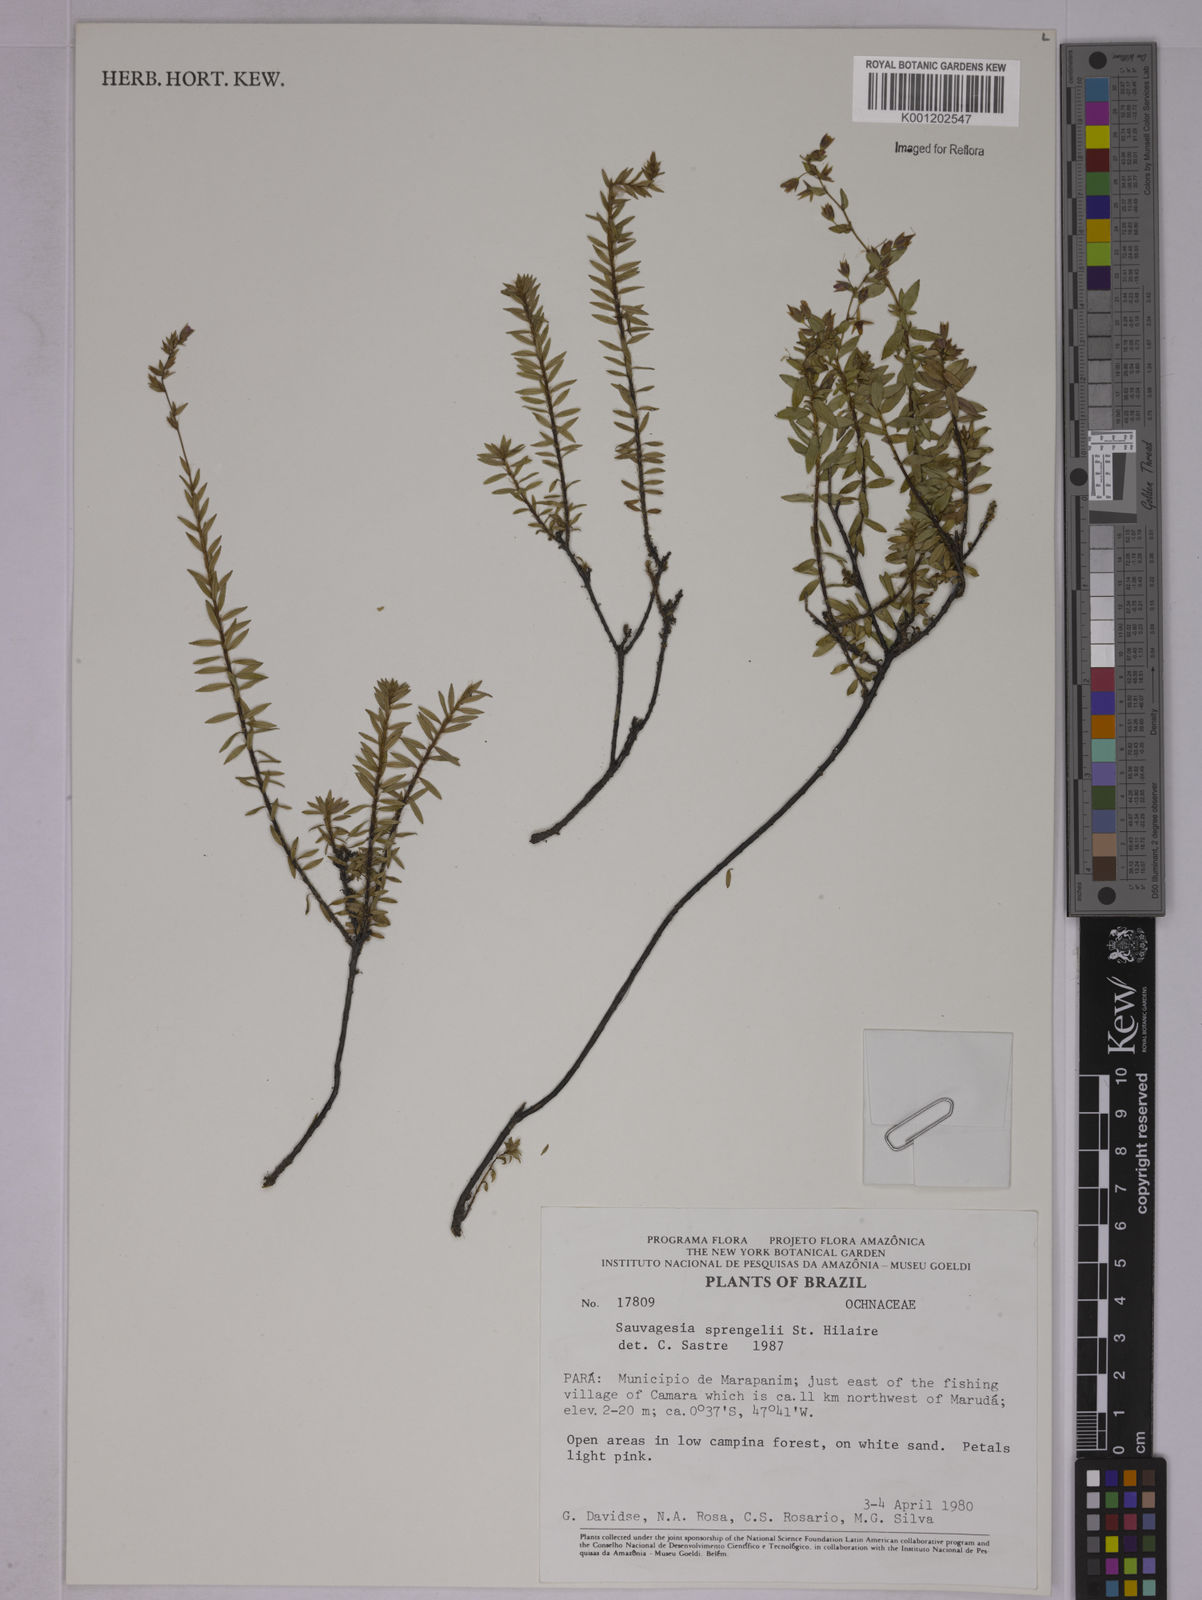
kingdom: Plantae
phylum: Tracheophyta
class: Magnoliopsida
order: Malpighiales
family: Ochnaceae
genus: Sauvagesia
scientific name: Sauvagesia sprengelii
